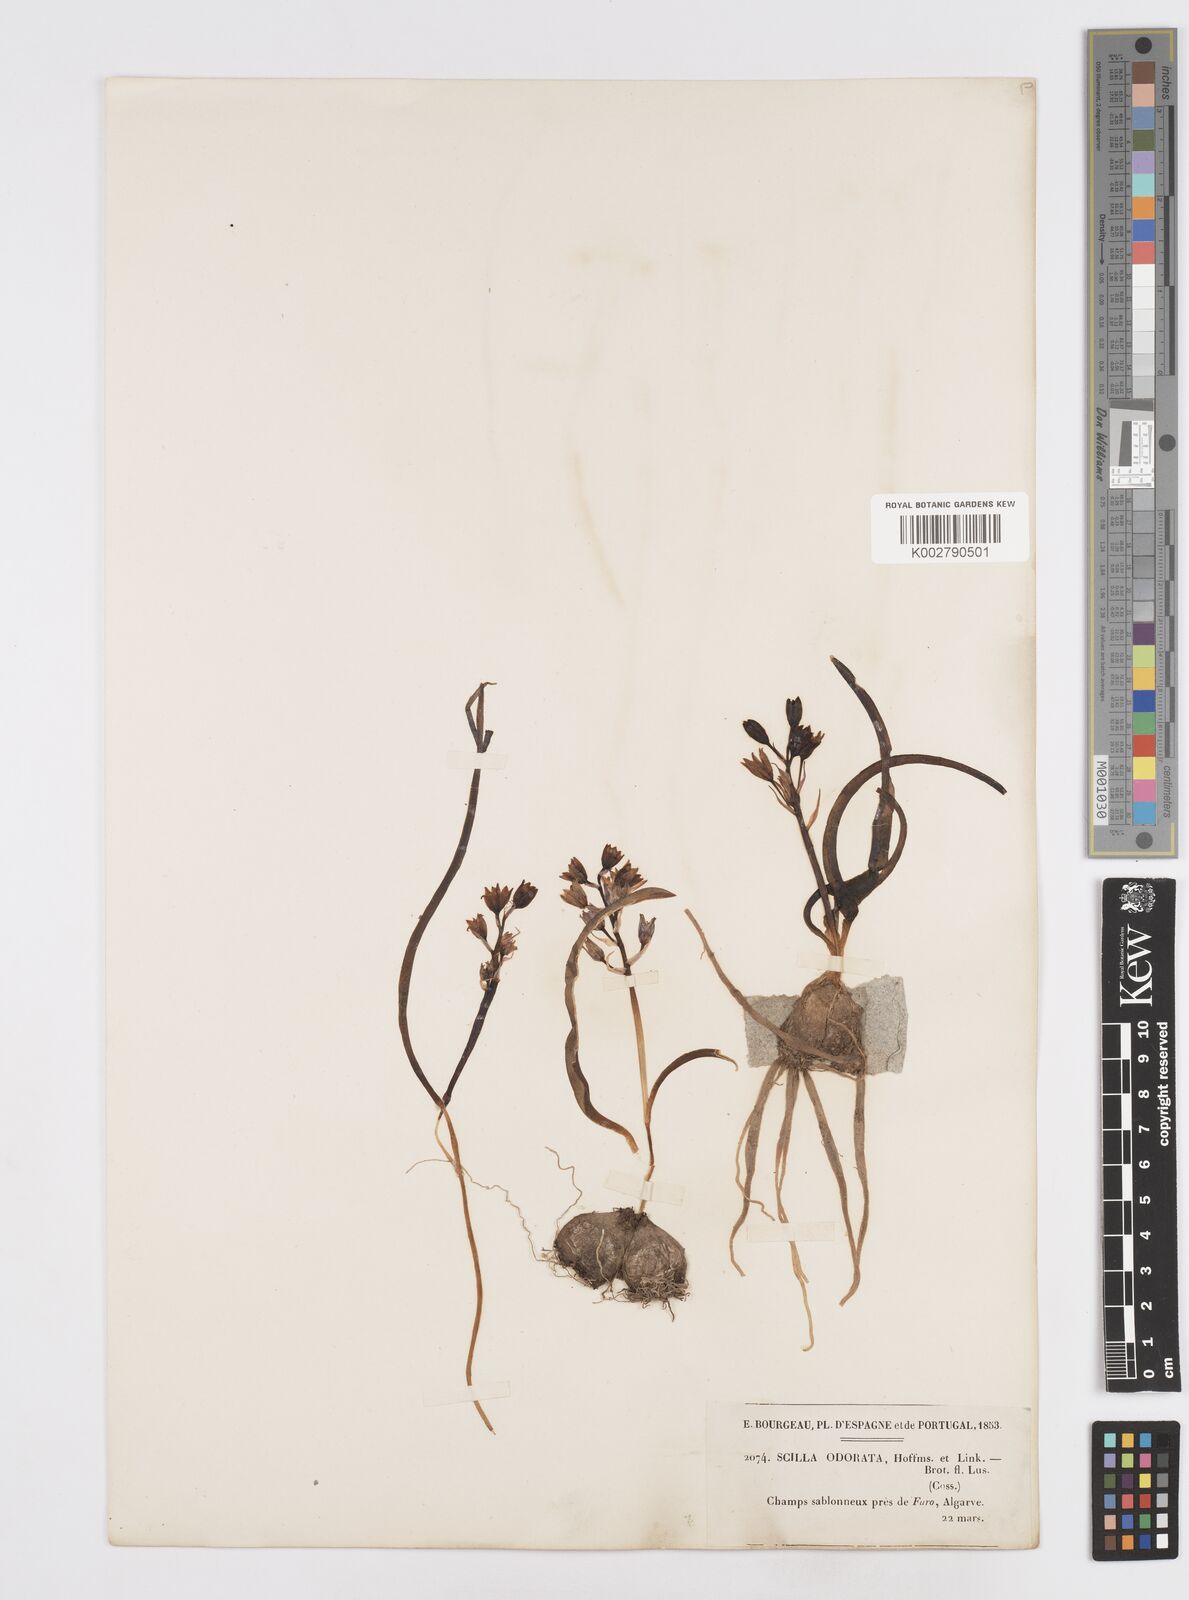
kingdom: Plantae
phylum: Tracheophyta
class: Liliopsida
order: Asparagales
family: Asparagaceae
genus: Scilla
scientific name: Scilla verna
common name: Spring squill
